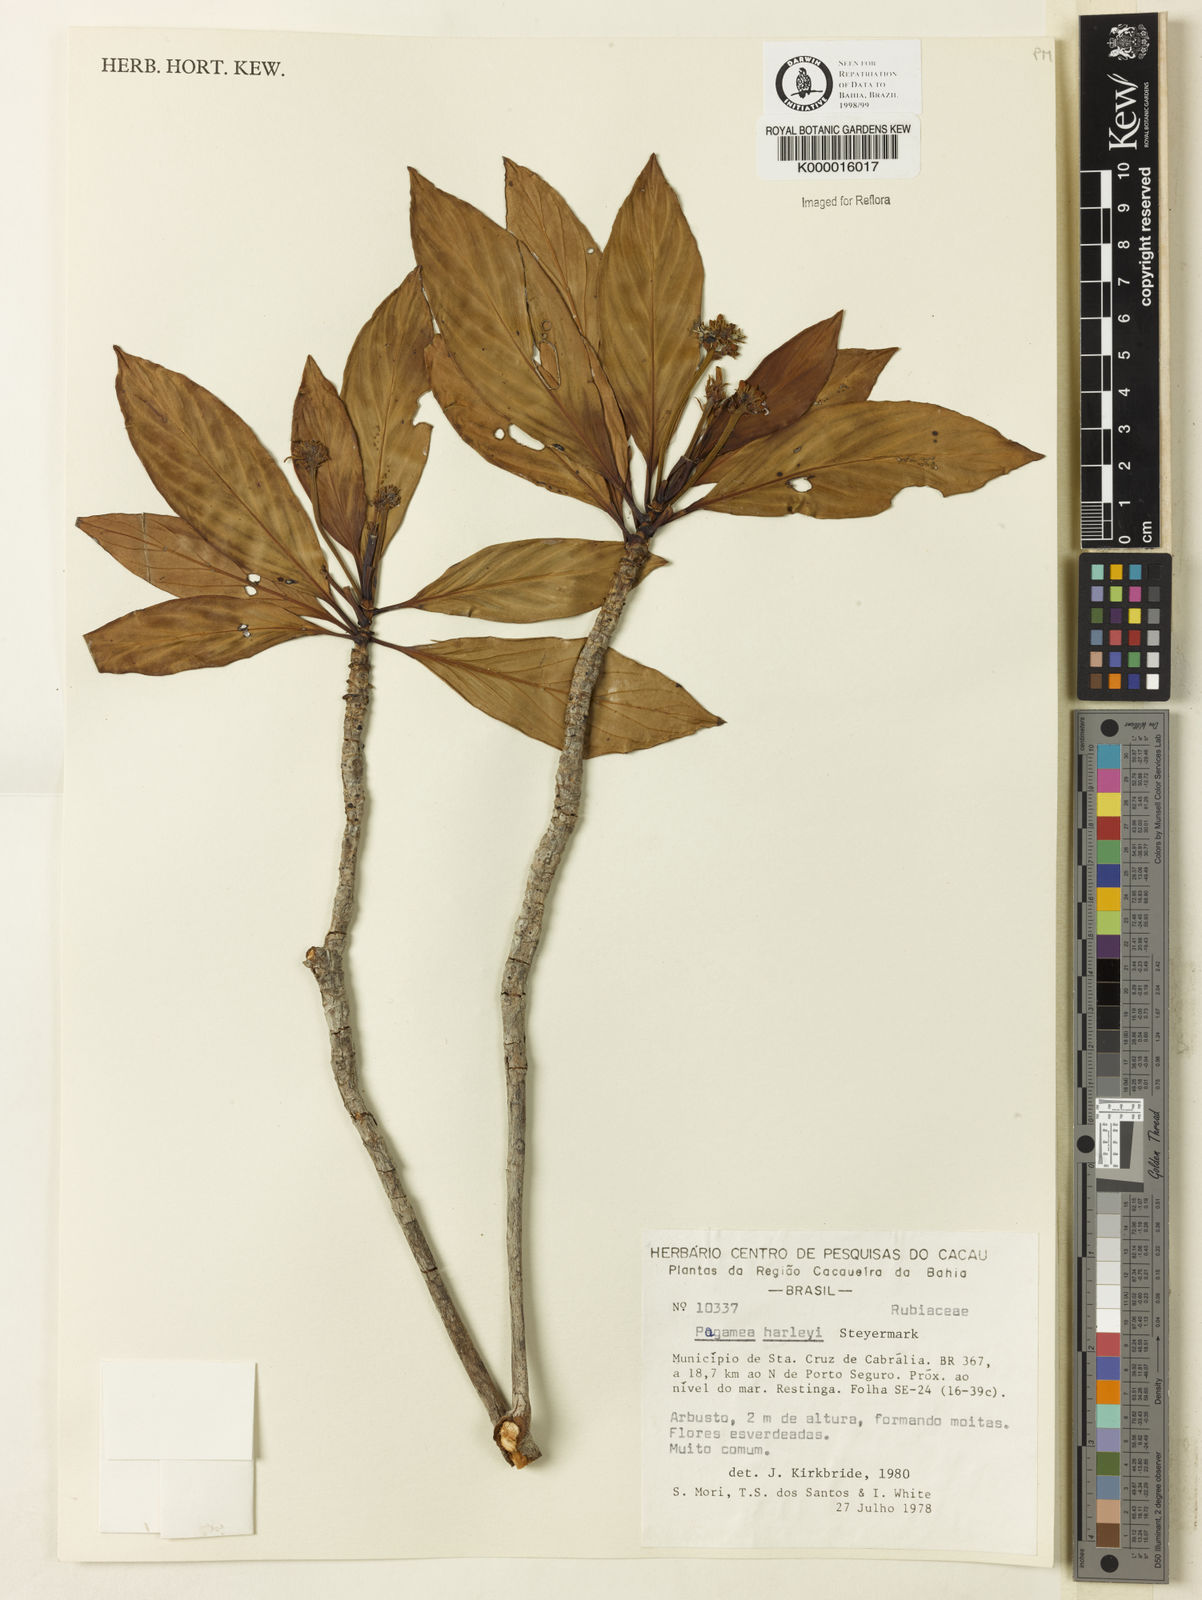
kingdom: Plantae
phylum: Tracheophyta
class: Magnoliopsida
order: Gentianales
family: Rubiaceae
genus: Pagamea
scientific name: Pagamea harleyi
